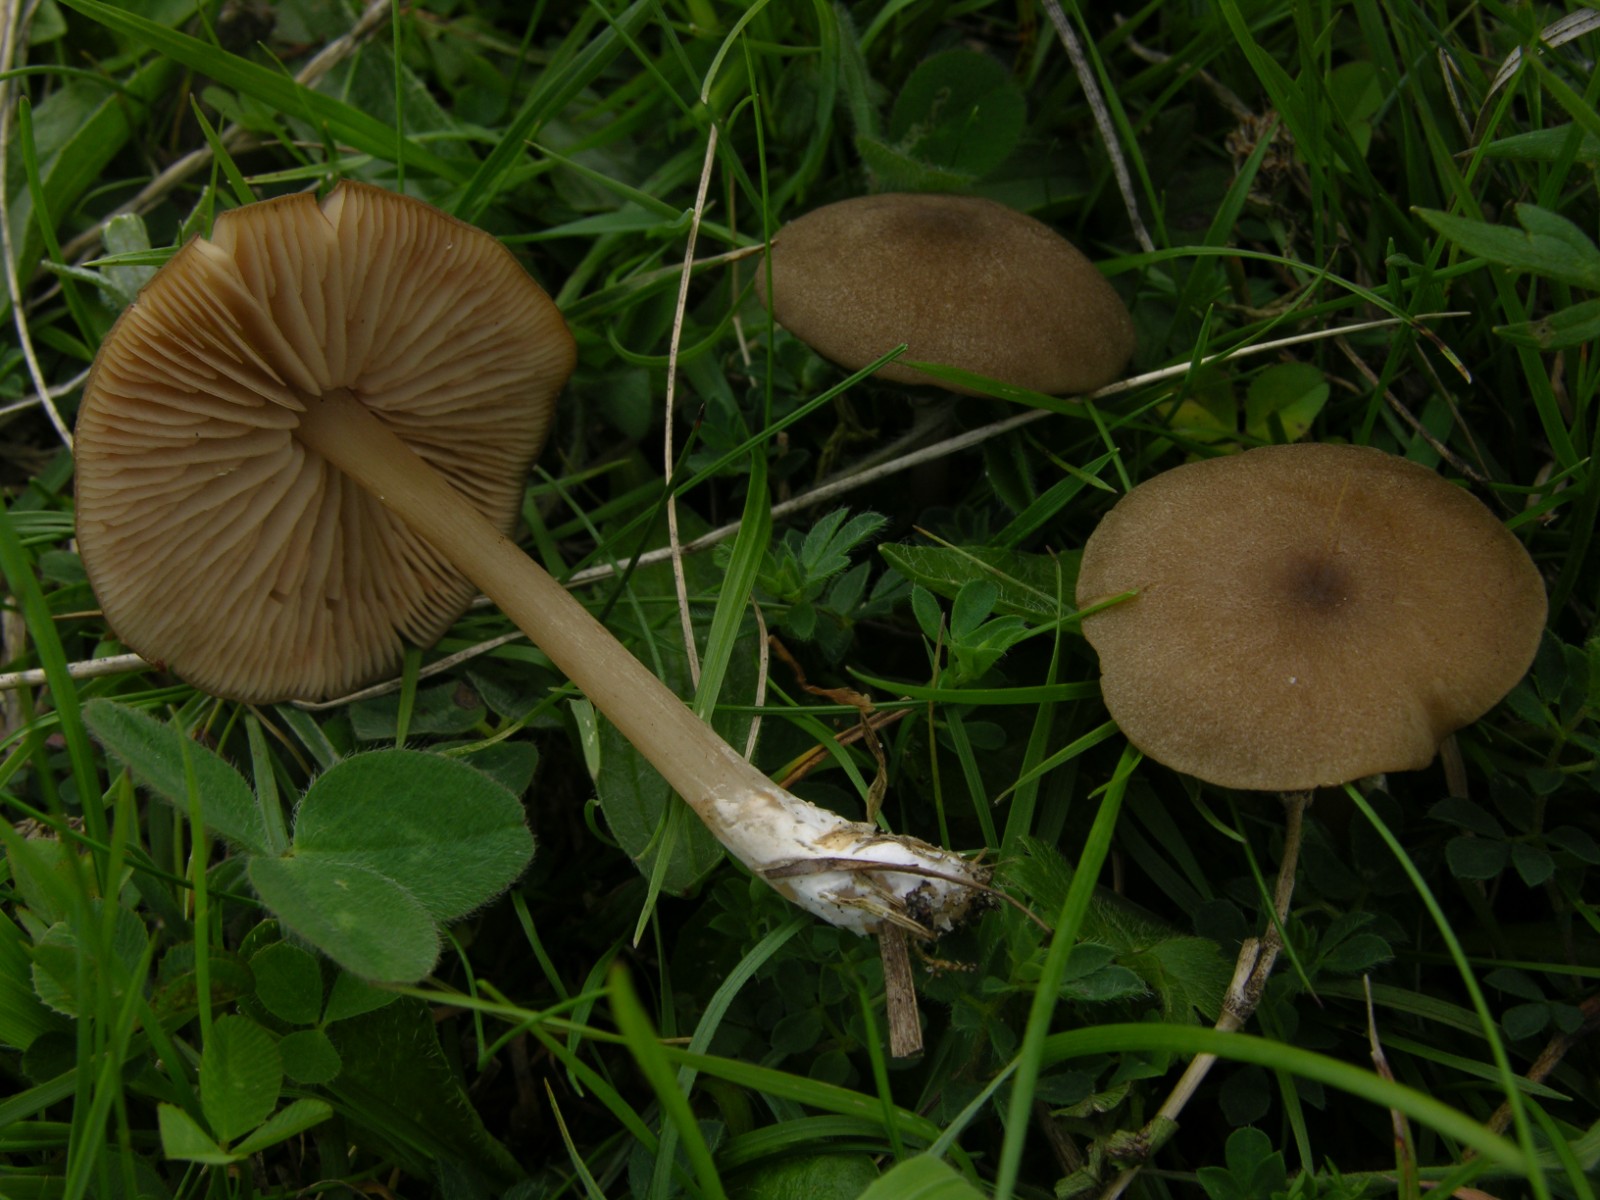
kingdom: Fungi
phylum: Basidiomycota
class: Agaricomycetes
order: Agaricales
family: Entolomataceae
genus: Entoloma
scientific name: Entoloma turci
